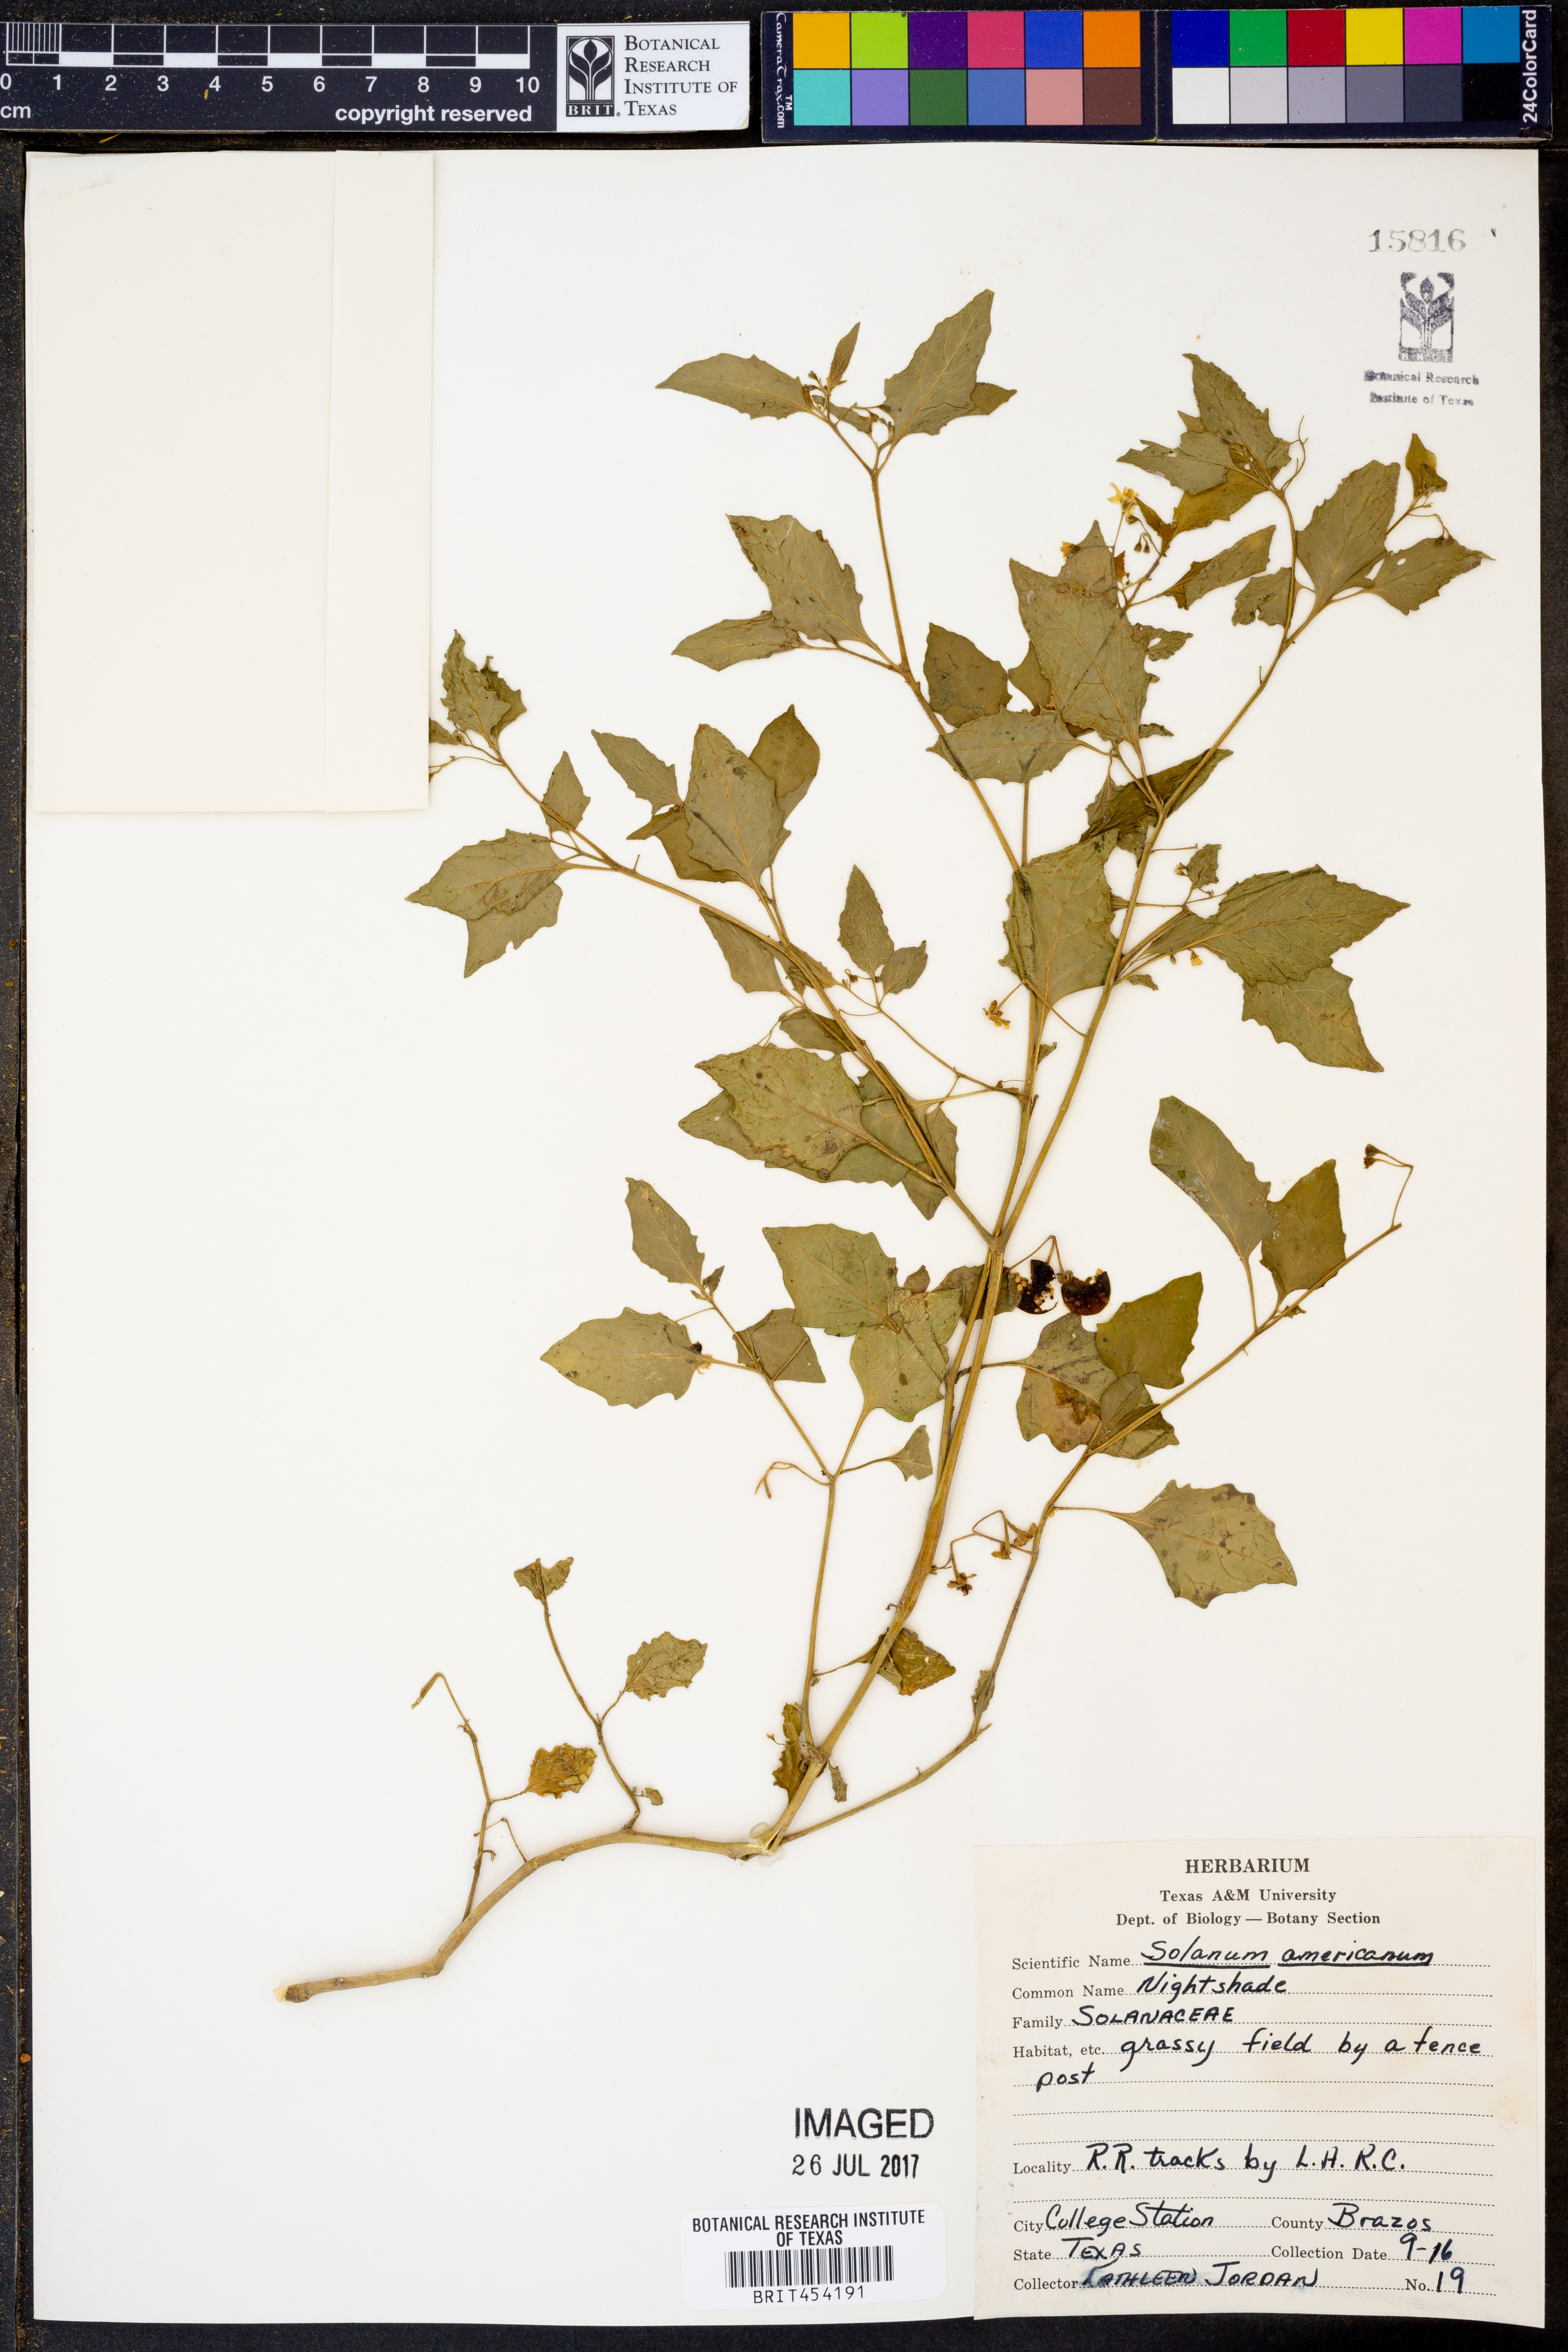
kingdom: Plantae
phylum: Tracheophyta
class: Magnoliopsida
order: Solanales
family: Solanaceae
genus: Solanum
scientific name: Solanum americanum
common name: American black nightshade
